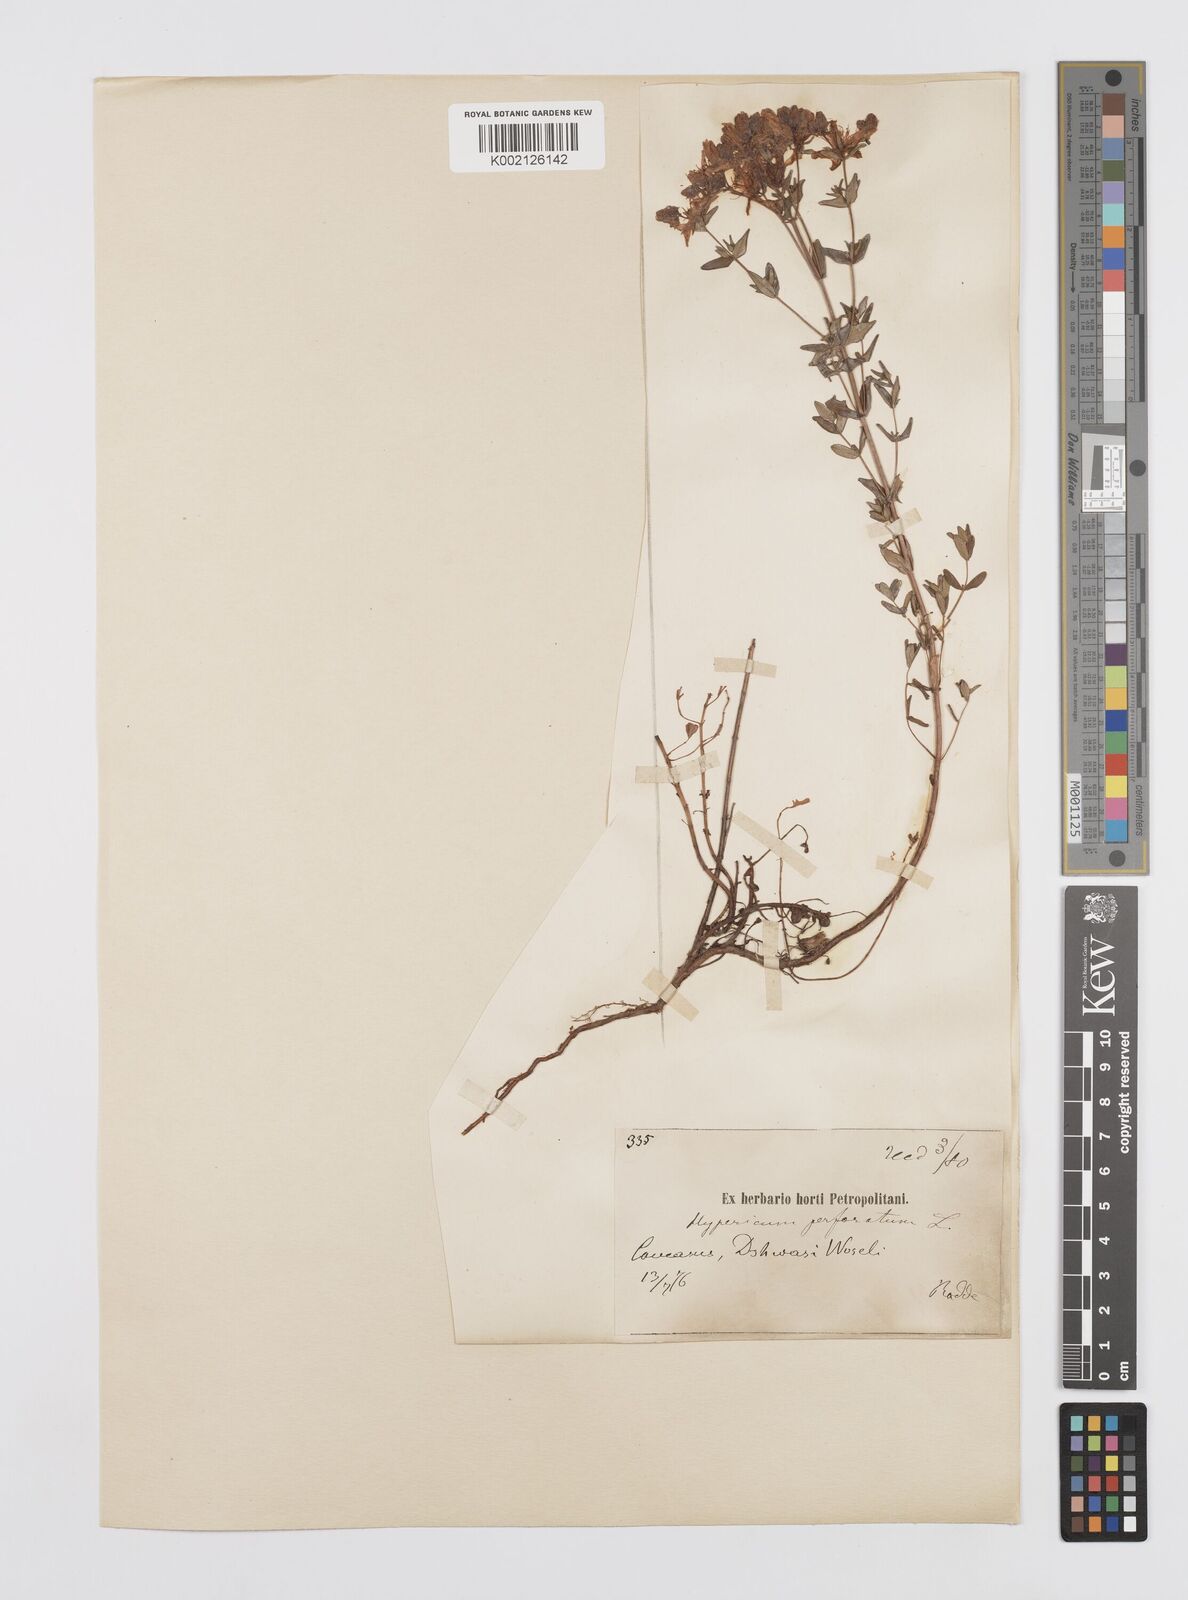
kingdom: Plantae
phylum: Tracheophyta
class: Magnoliopsida
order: Malpighiales
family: Hypericaceae
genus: Hypericum
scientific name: Hypericum perfoliatum
